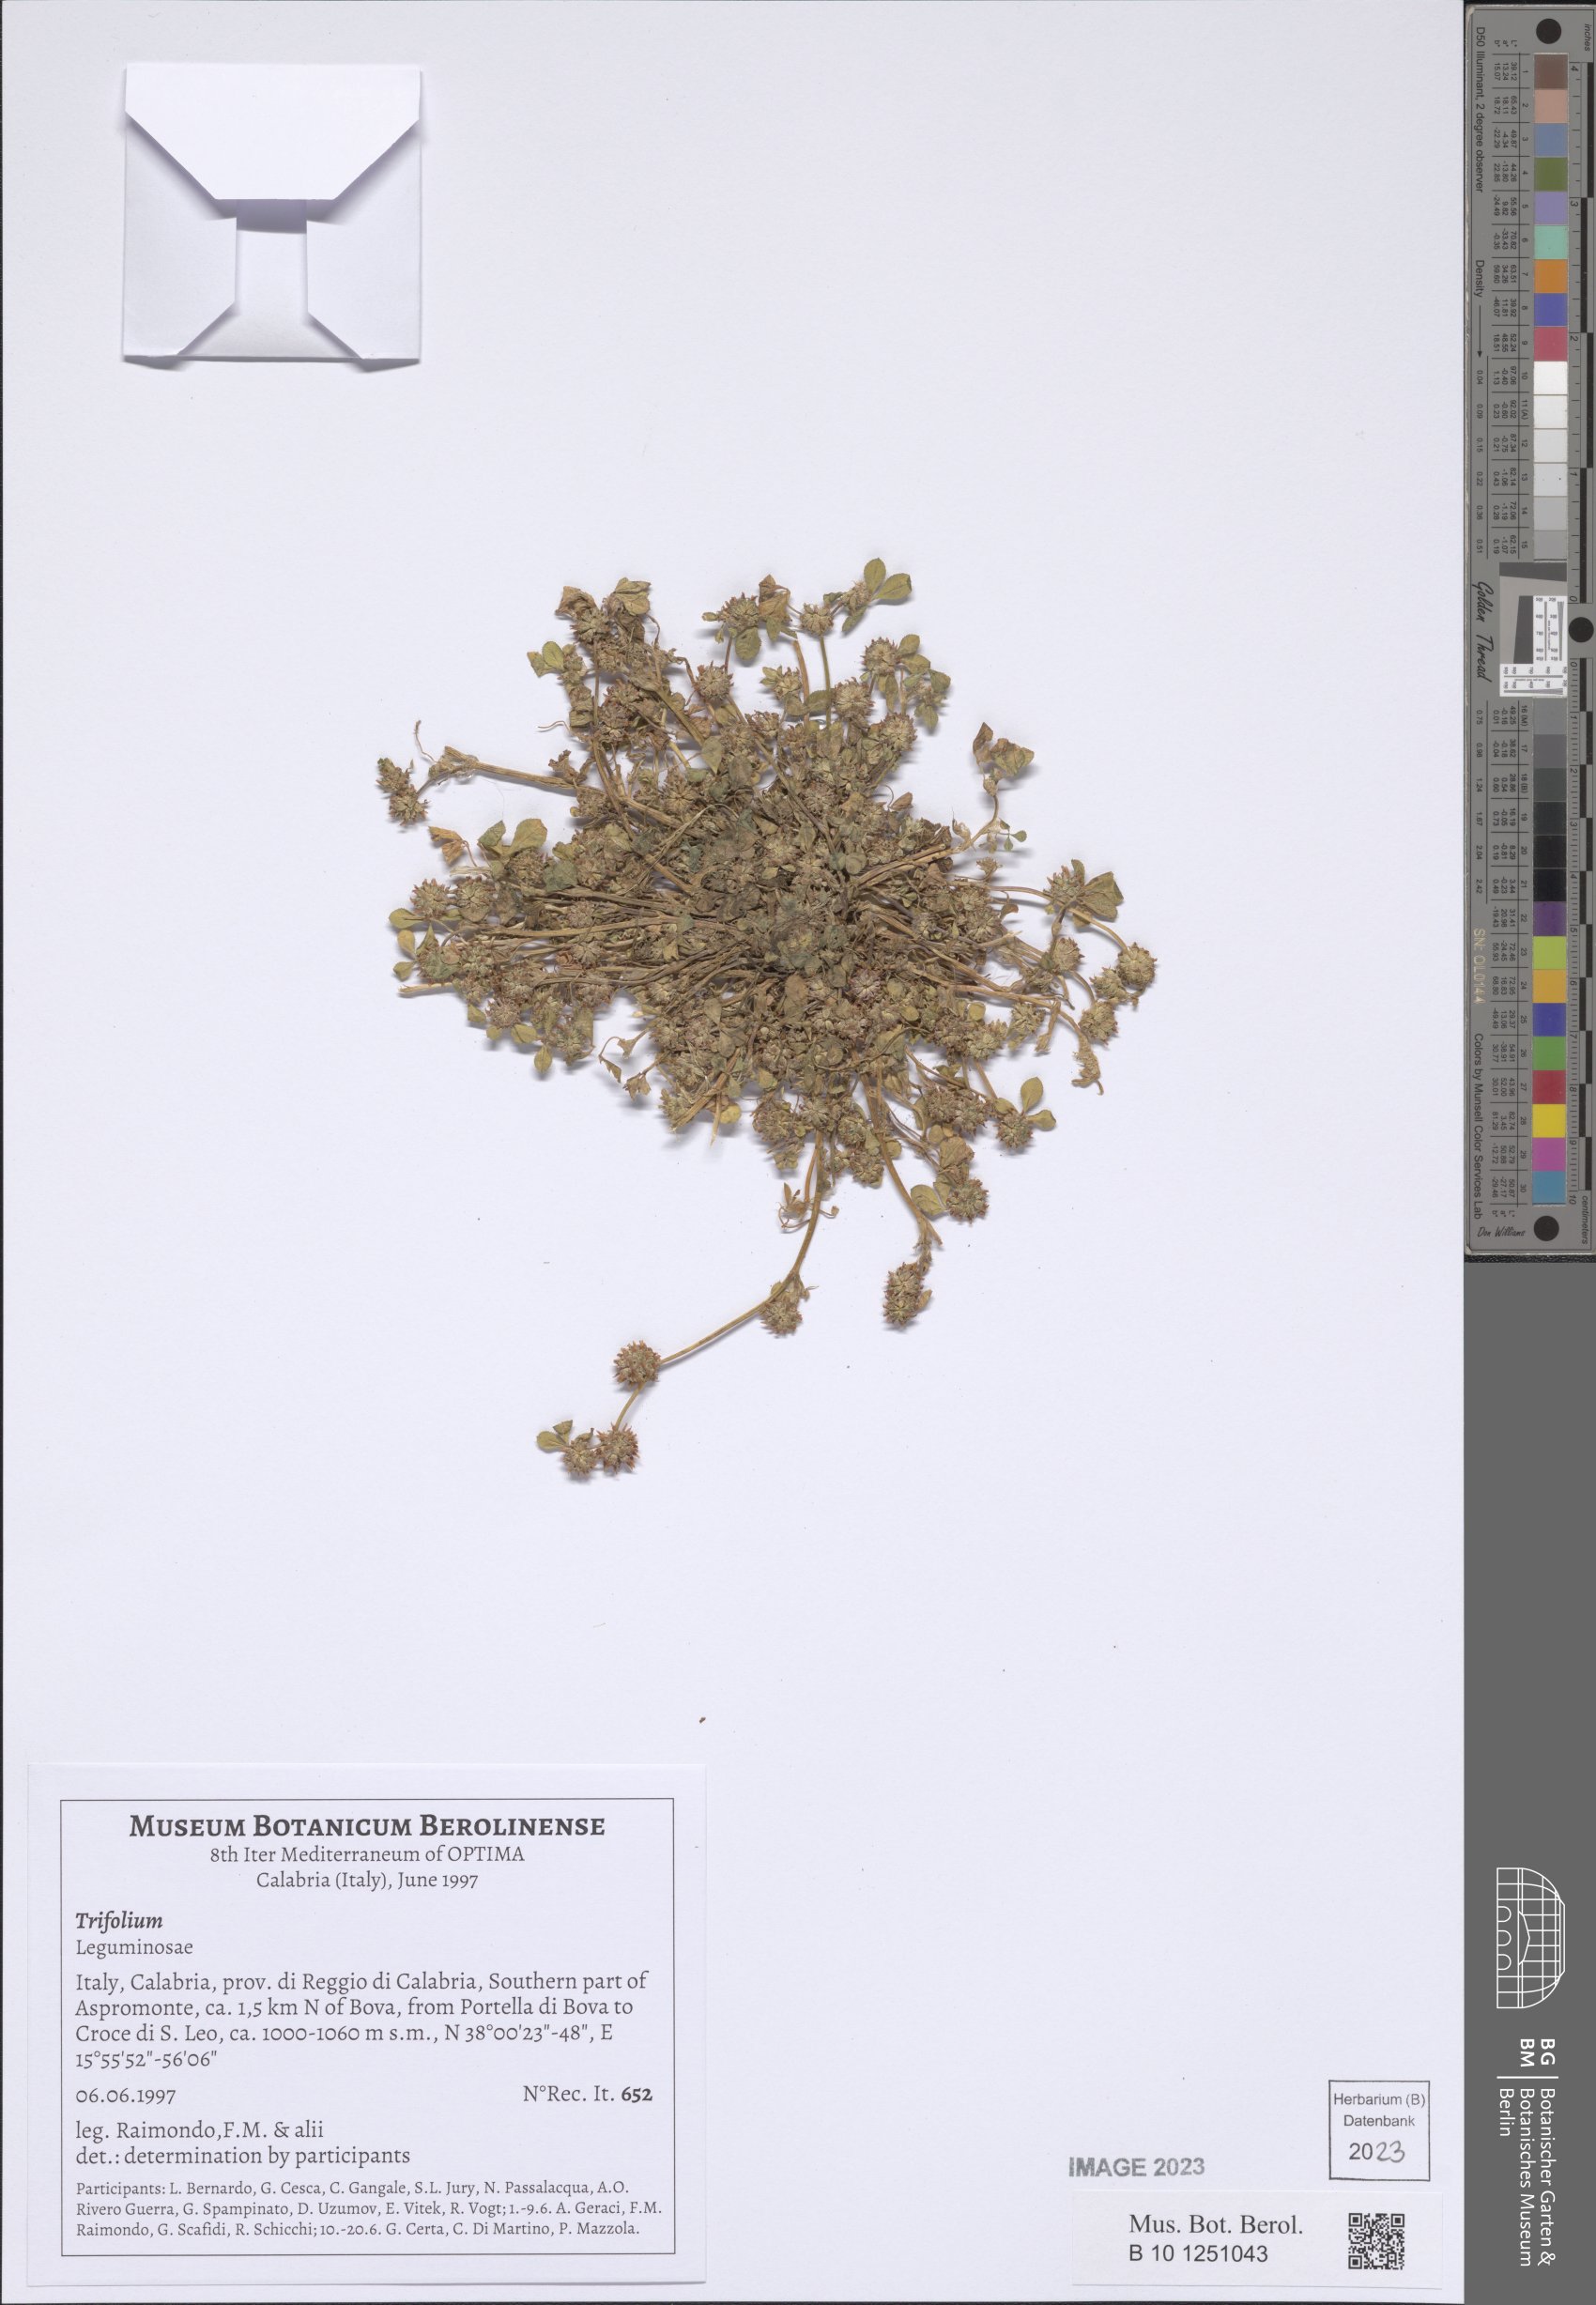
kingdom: Plantae
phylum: Tracheophyta
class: Magnoliopsida
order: Fabales
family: Fabaceae
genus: Trifolium
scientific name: Trifolium
